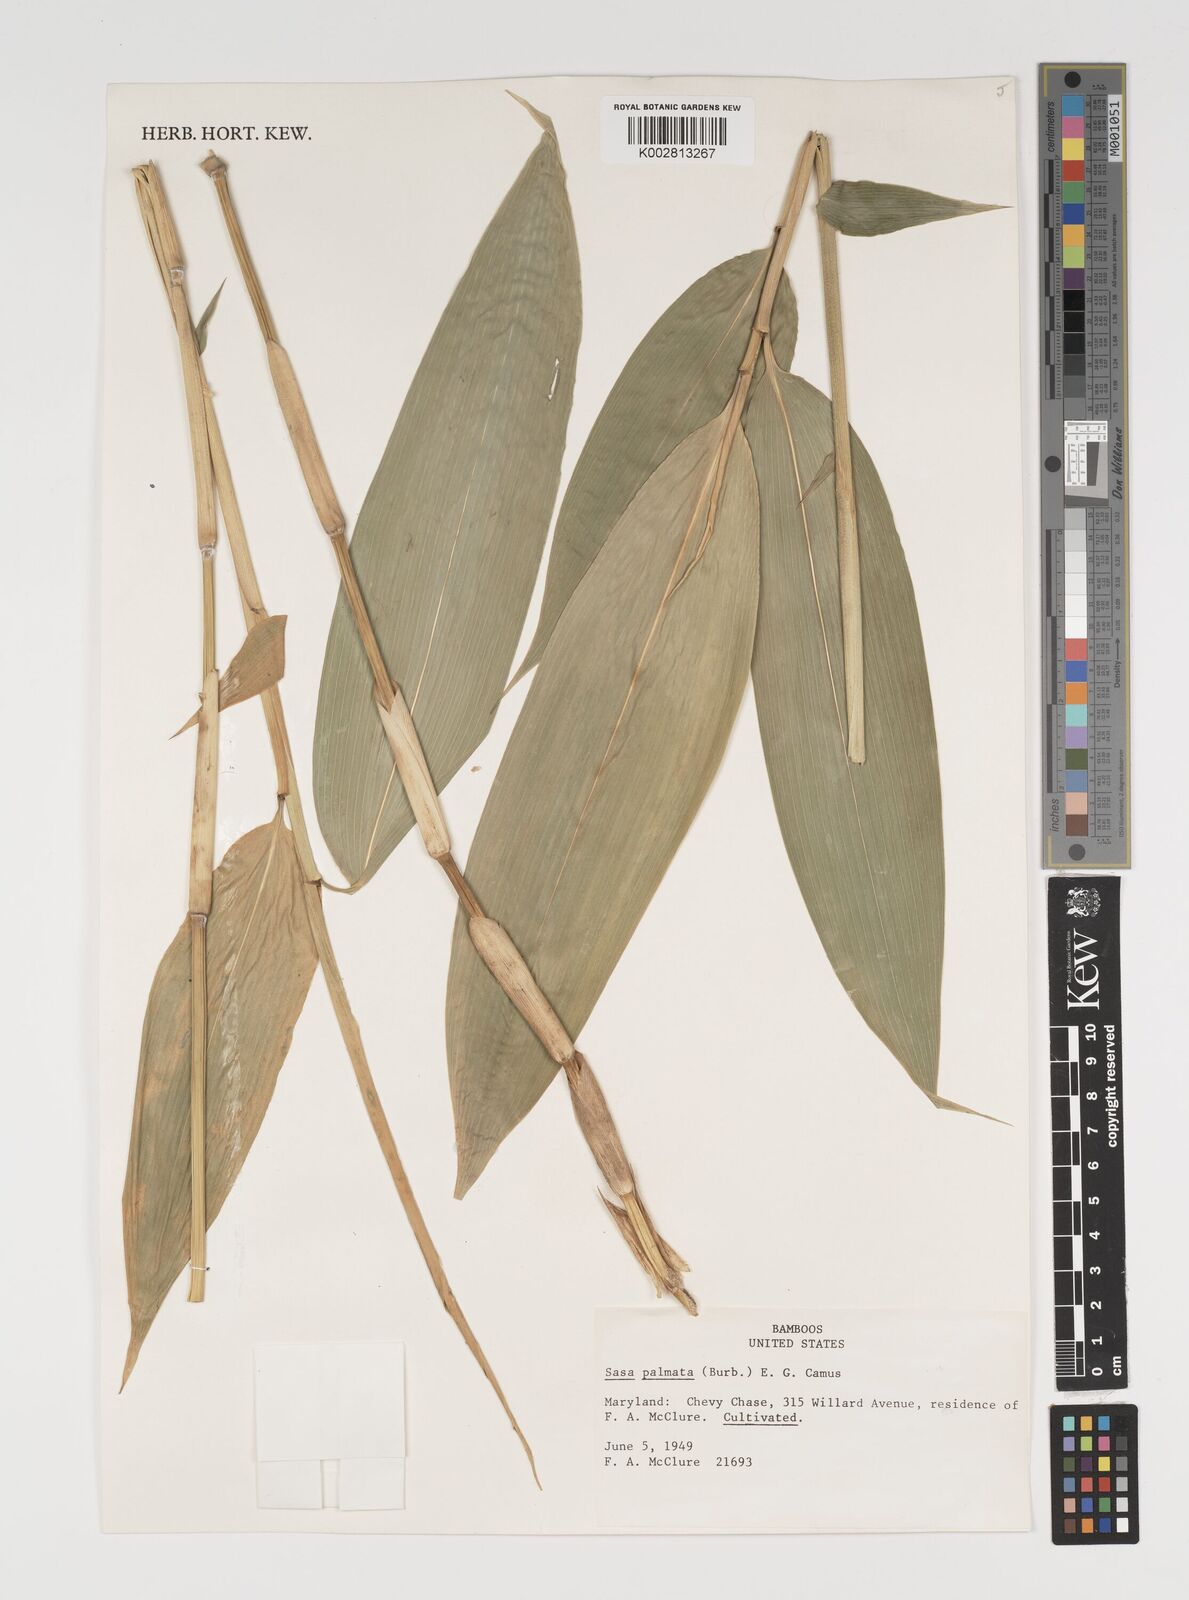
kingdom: Plantae
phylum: Tracheophyta
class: Liliopsida
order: Poales
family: Poaceae
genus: Sasa
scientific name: Sasa palmata
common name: Broad-leaved bamboo
